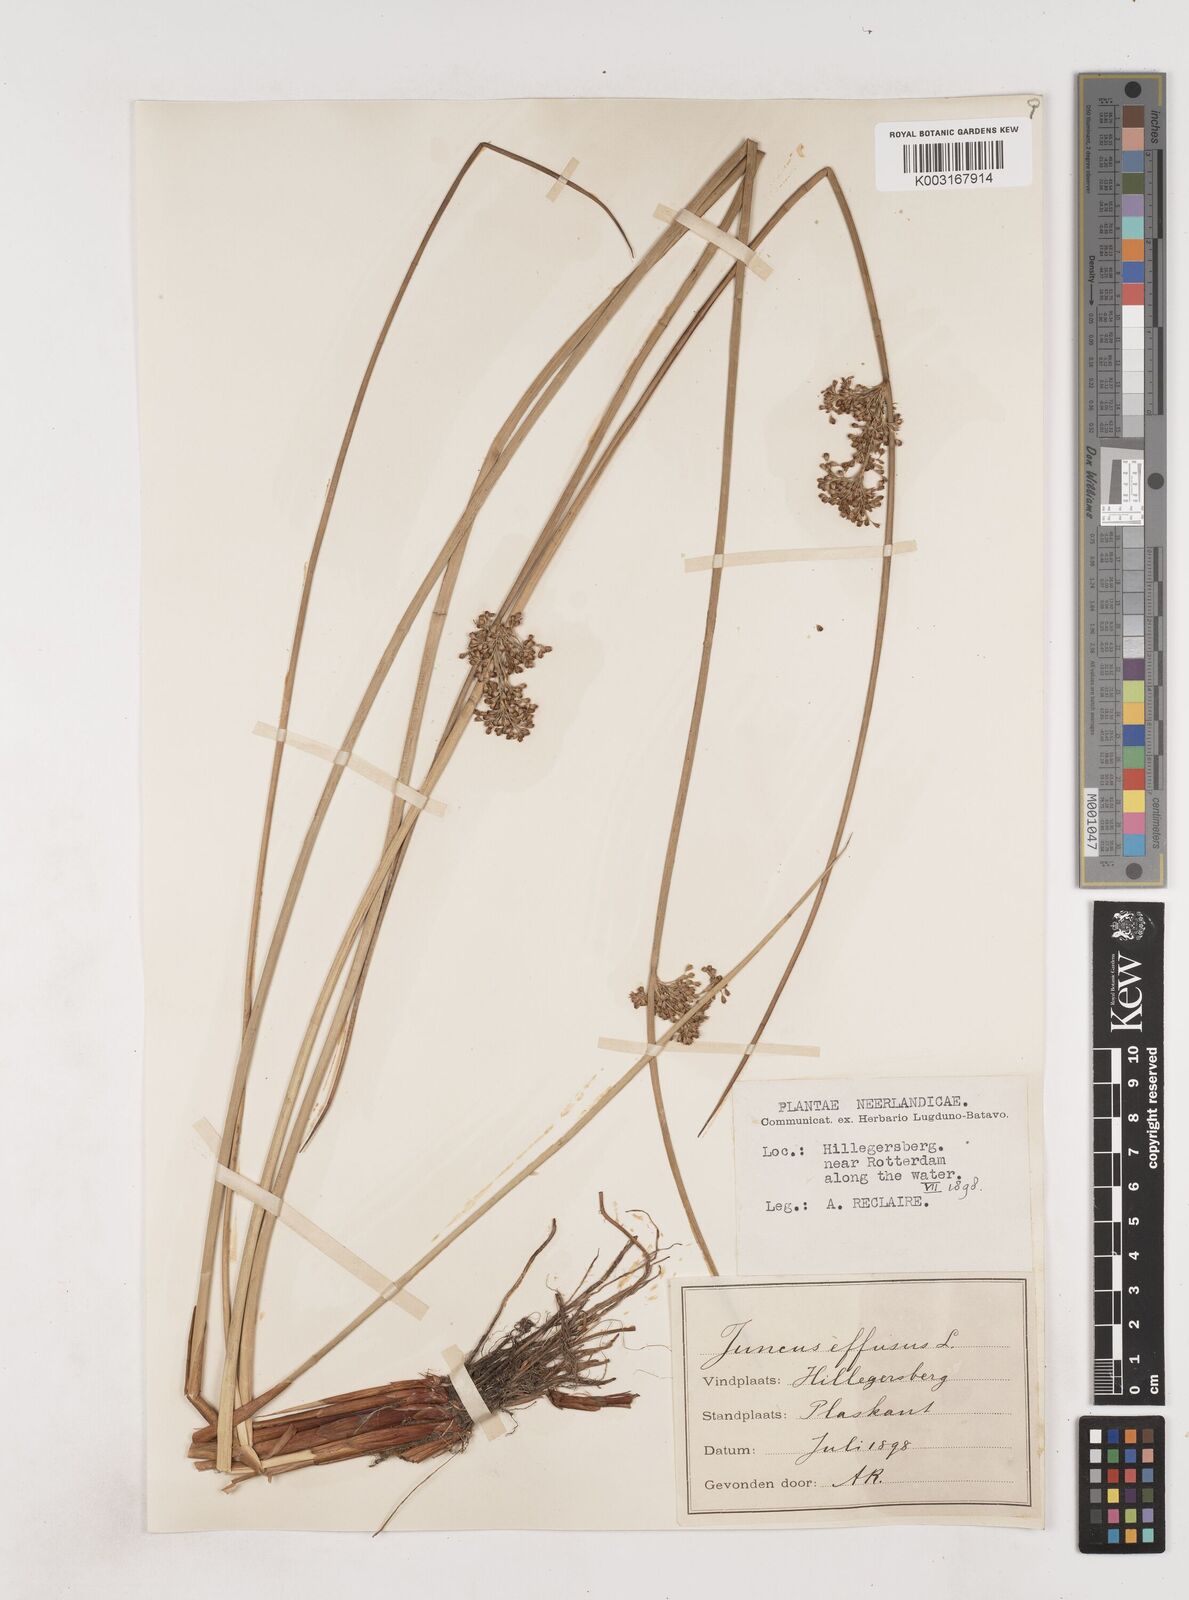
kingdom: Plantae
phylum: Tracheophyta
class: Liliopsida
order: Poales
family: Juncaceae
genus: Juncus
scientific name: Juncus effusus
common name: Soft rush
